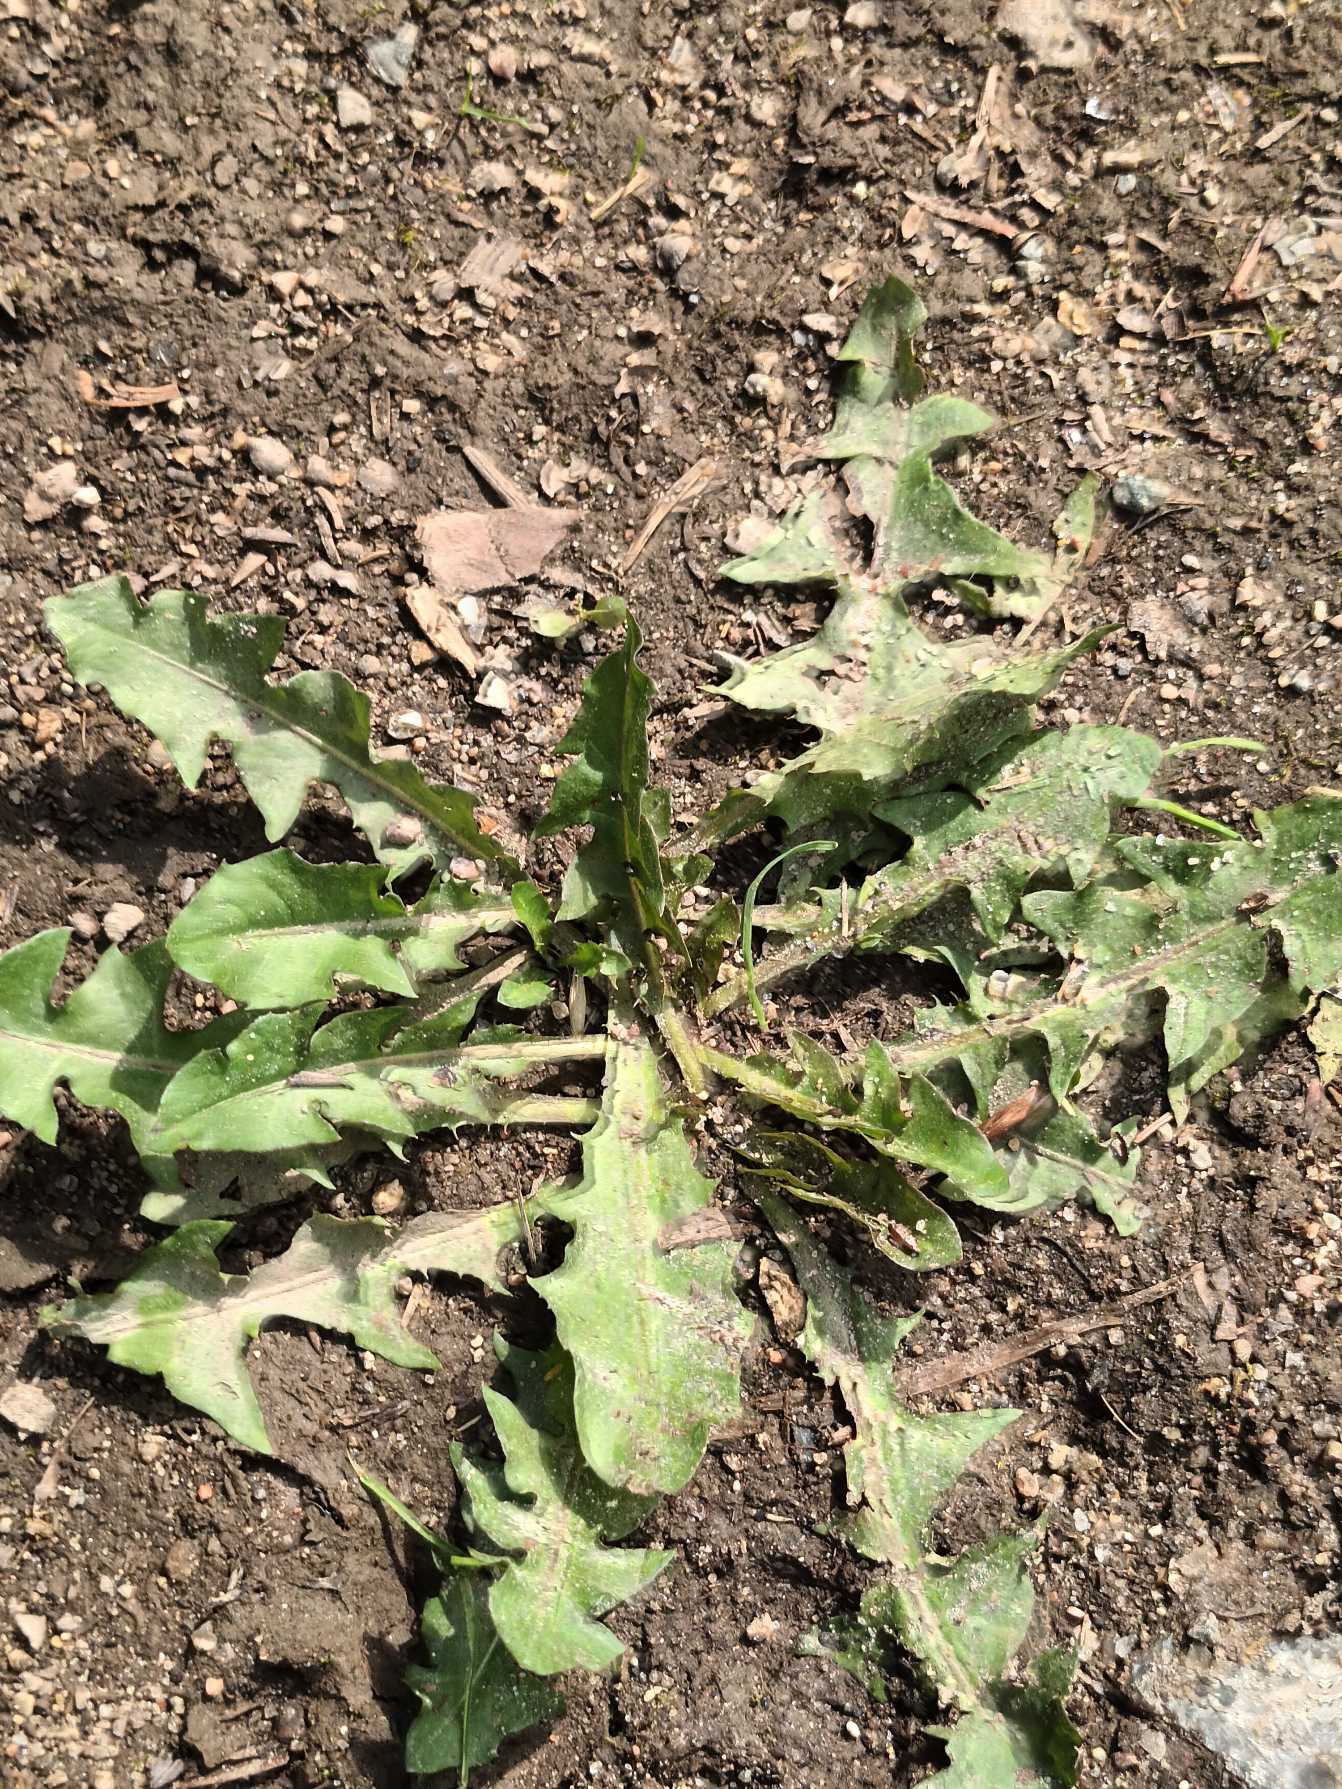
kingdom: Plantae
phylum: Tracheophyta
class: Magnoliopsida
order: Asterales
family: Asteraceae
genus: Taraxacum
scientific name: Taraxacum
